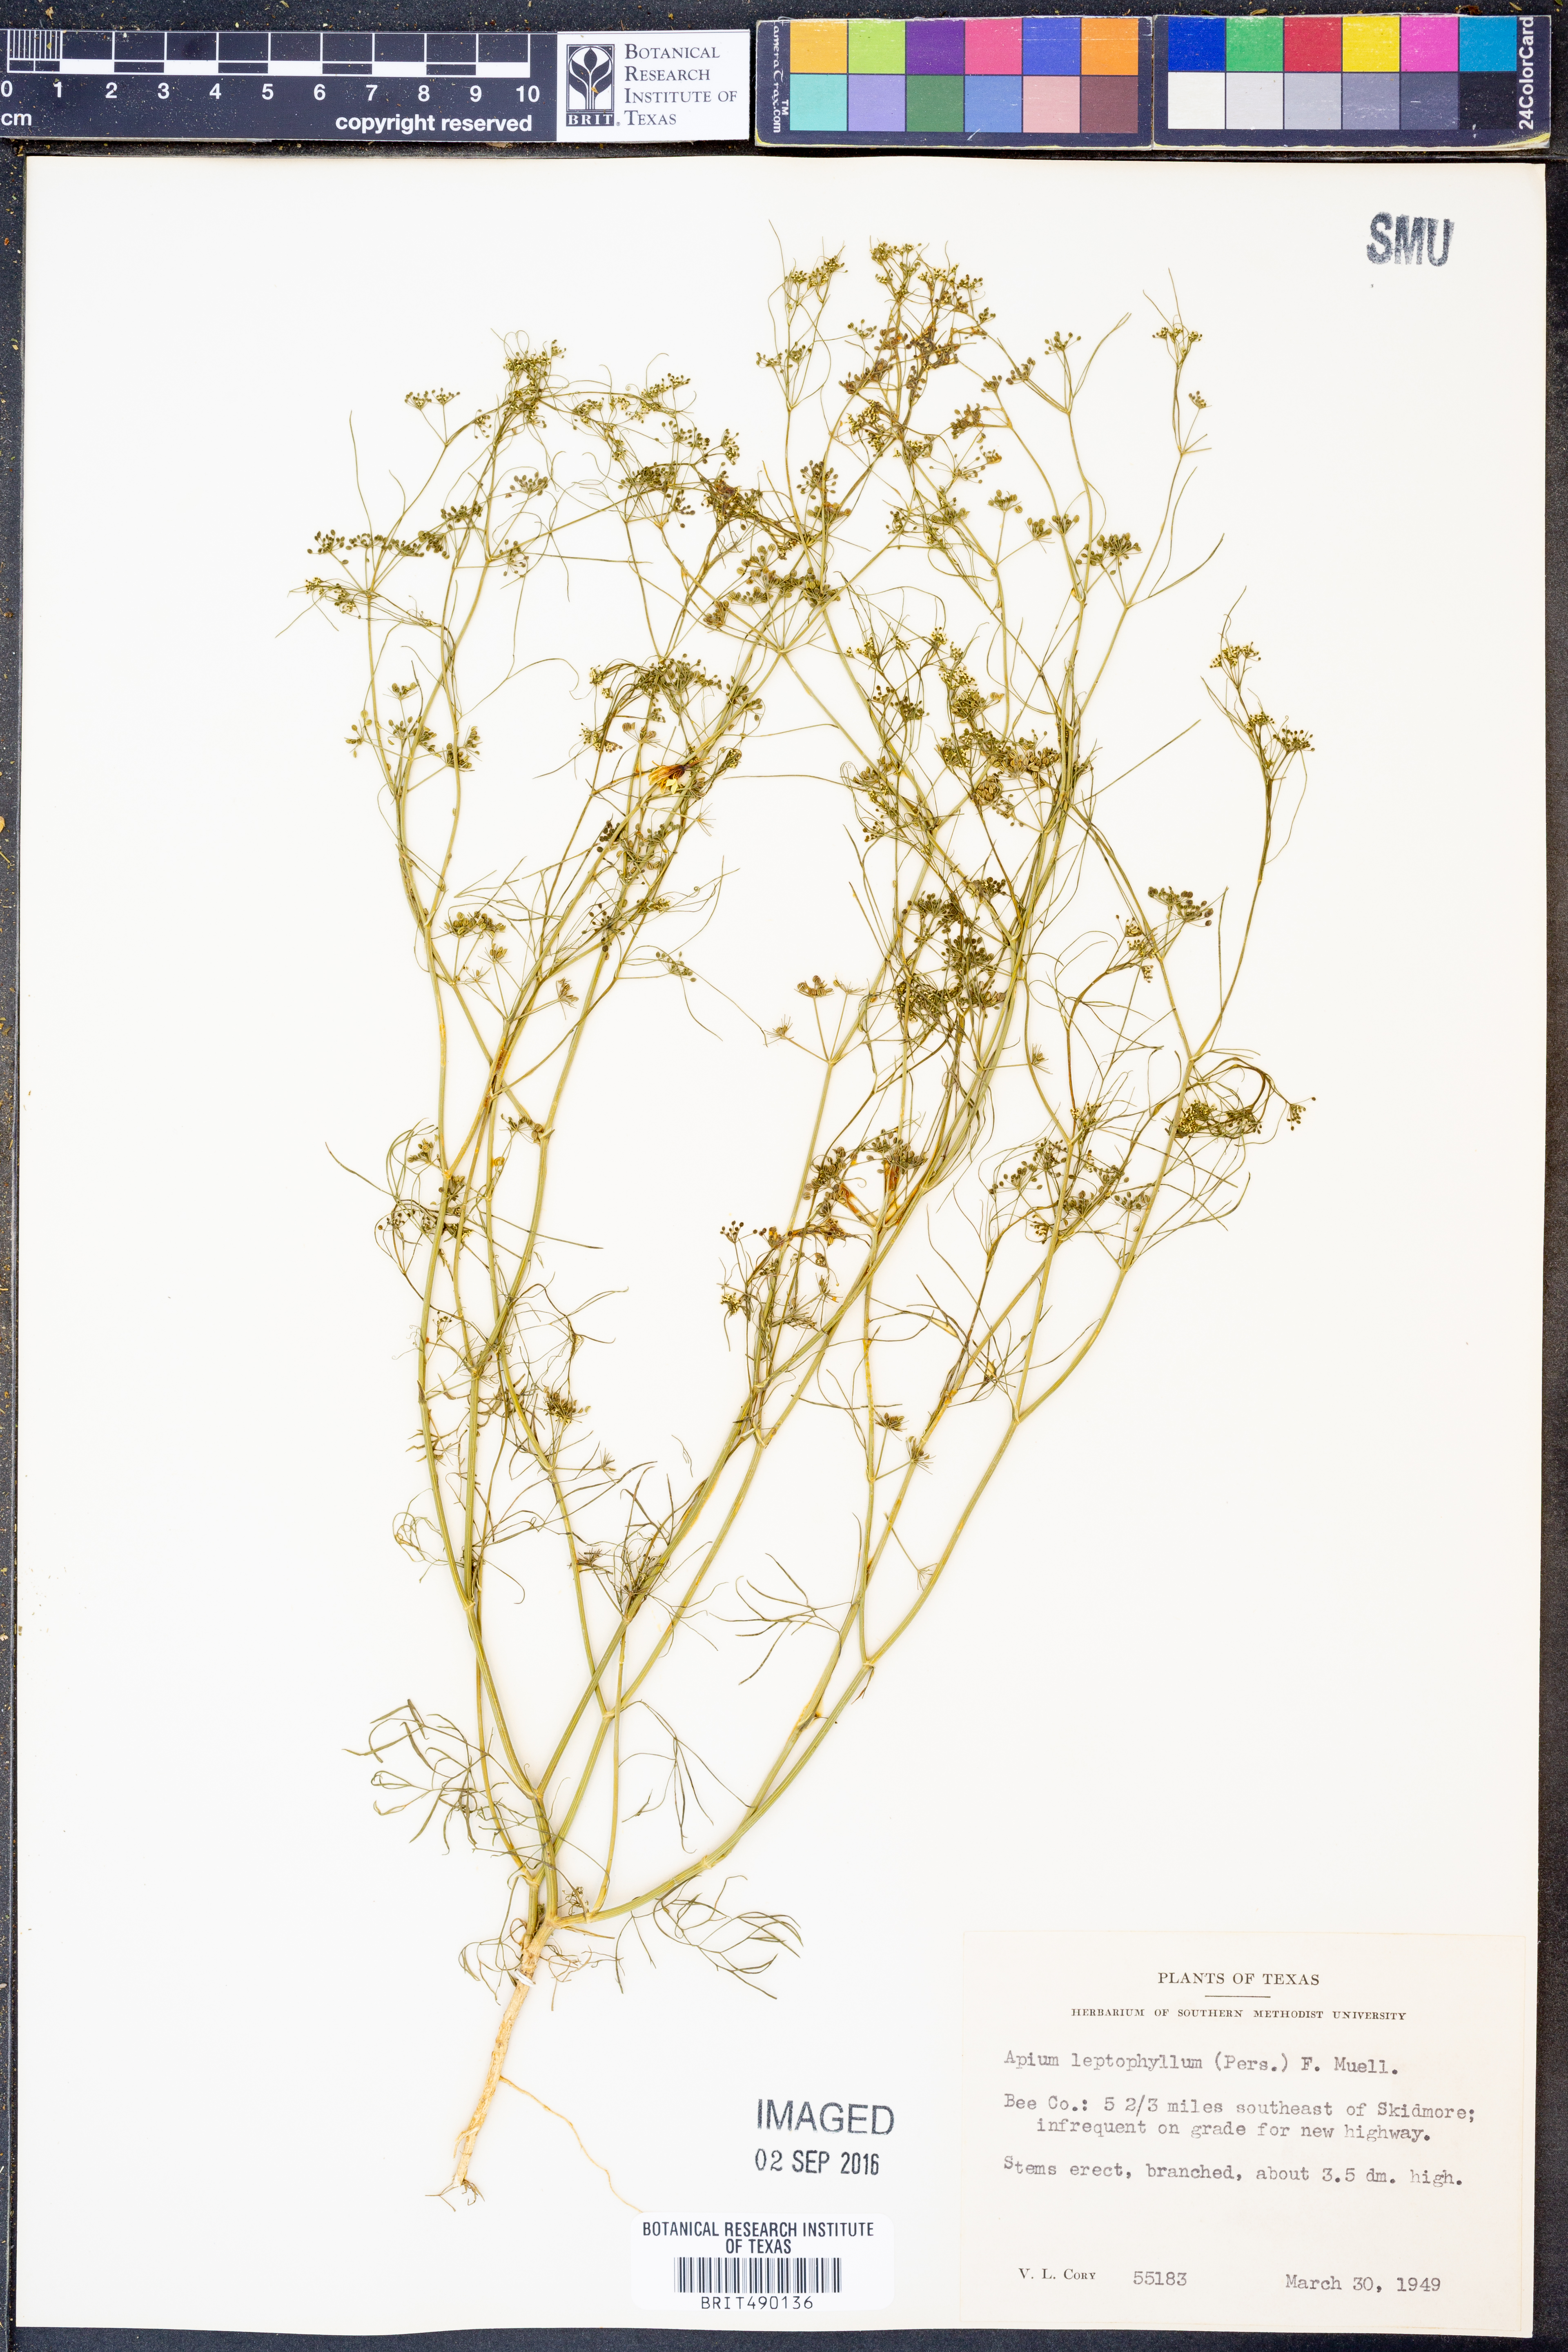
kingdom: Plantae
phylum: Tracheophyta
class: Magnoliopsida
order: Apiales
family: Apiaceae
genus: Cyclospermum
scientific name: Cyclospermum leptophyllum
